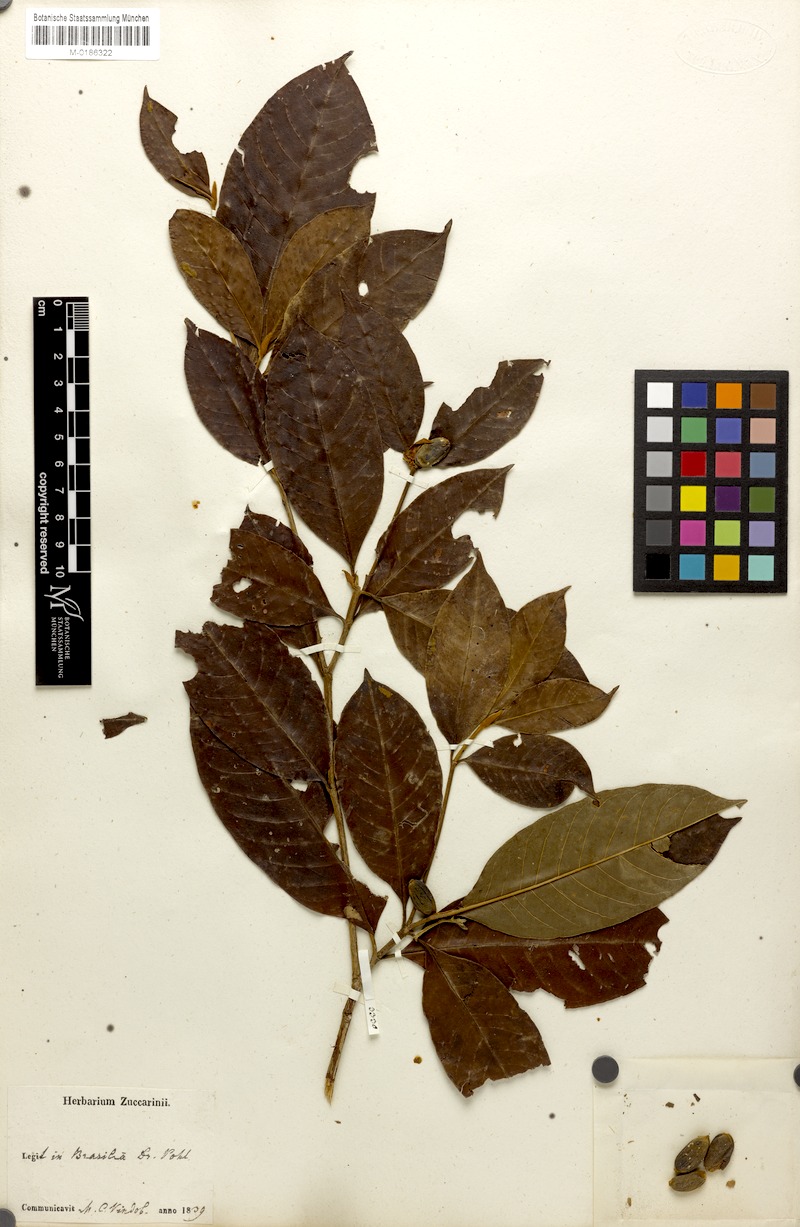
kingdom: Plantae
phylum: Tracheophyta
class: Magnoliopsida
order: Gentianales
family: Rubiaceae
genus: Amaioua
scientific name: Amaioua intermedia
